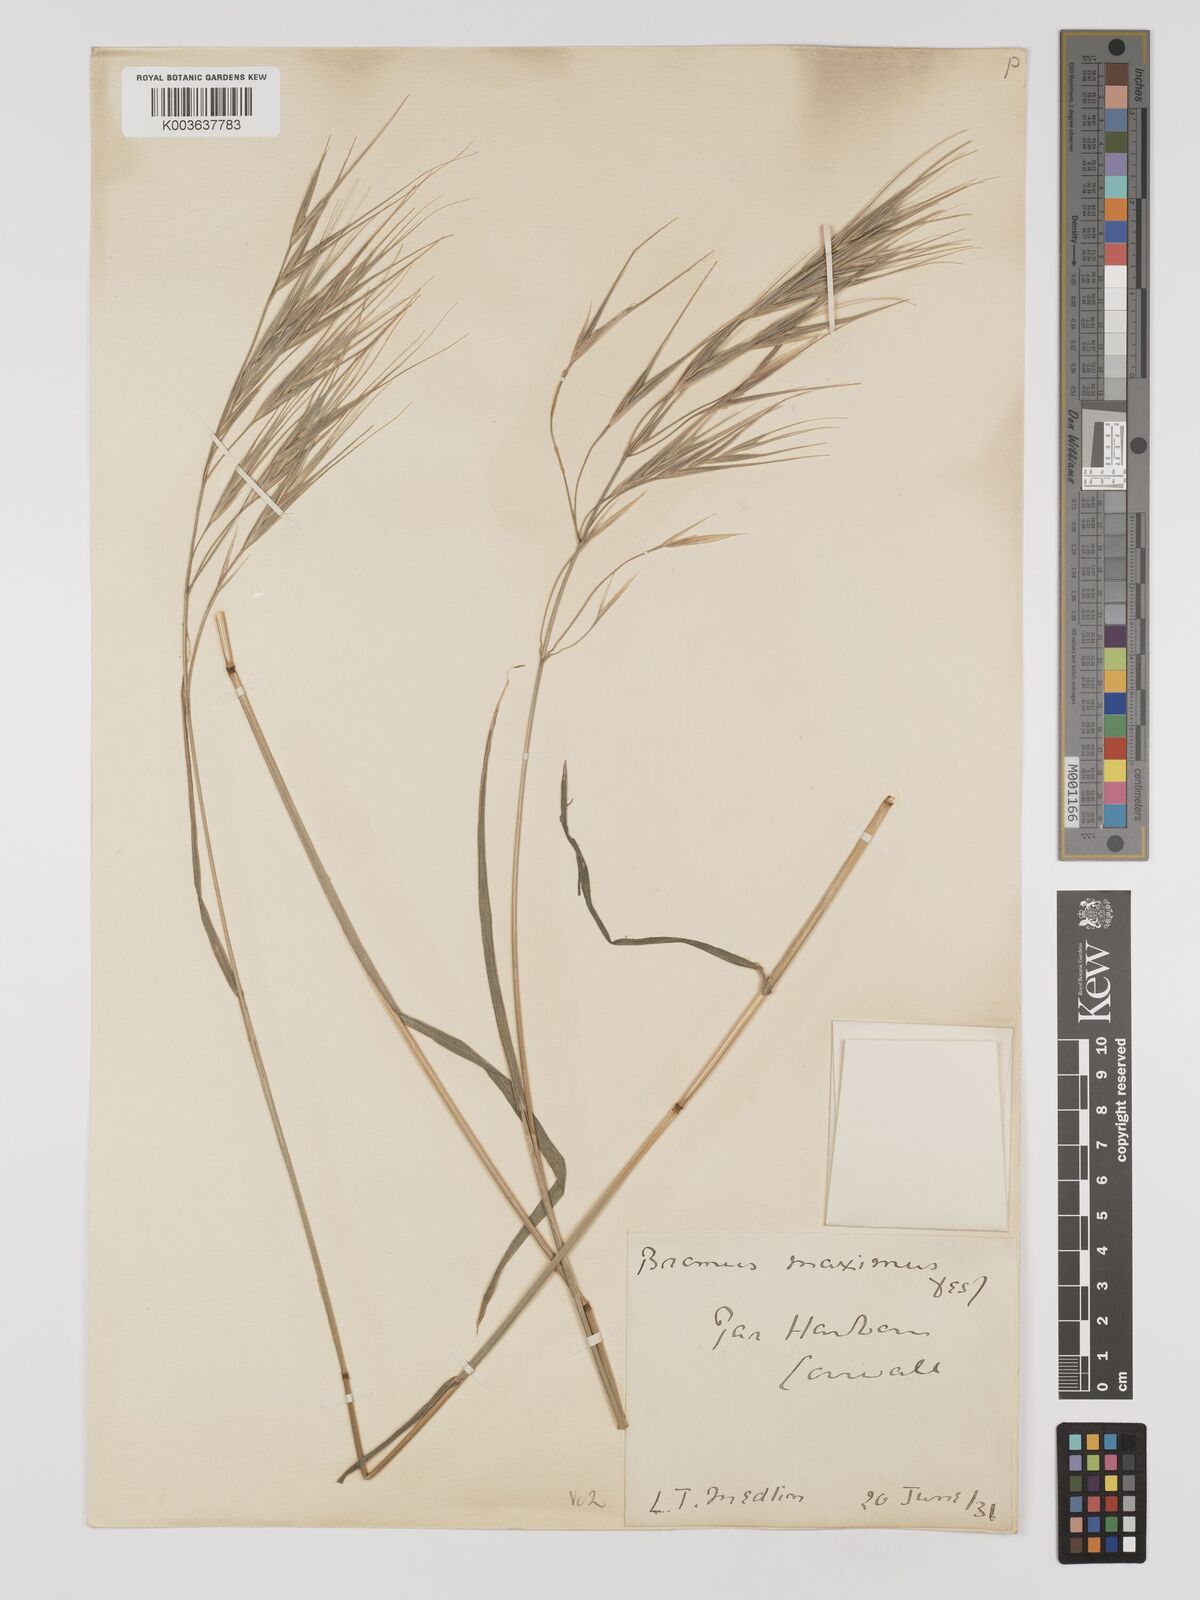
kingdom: Plantae
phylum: Tracheophyta
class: Liliopsida
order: Poales
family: Poaceae
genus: Bromus
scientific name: Bromus
